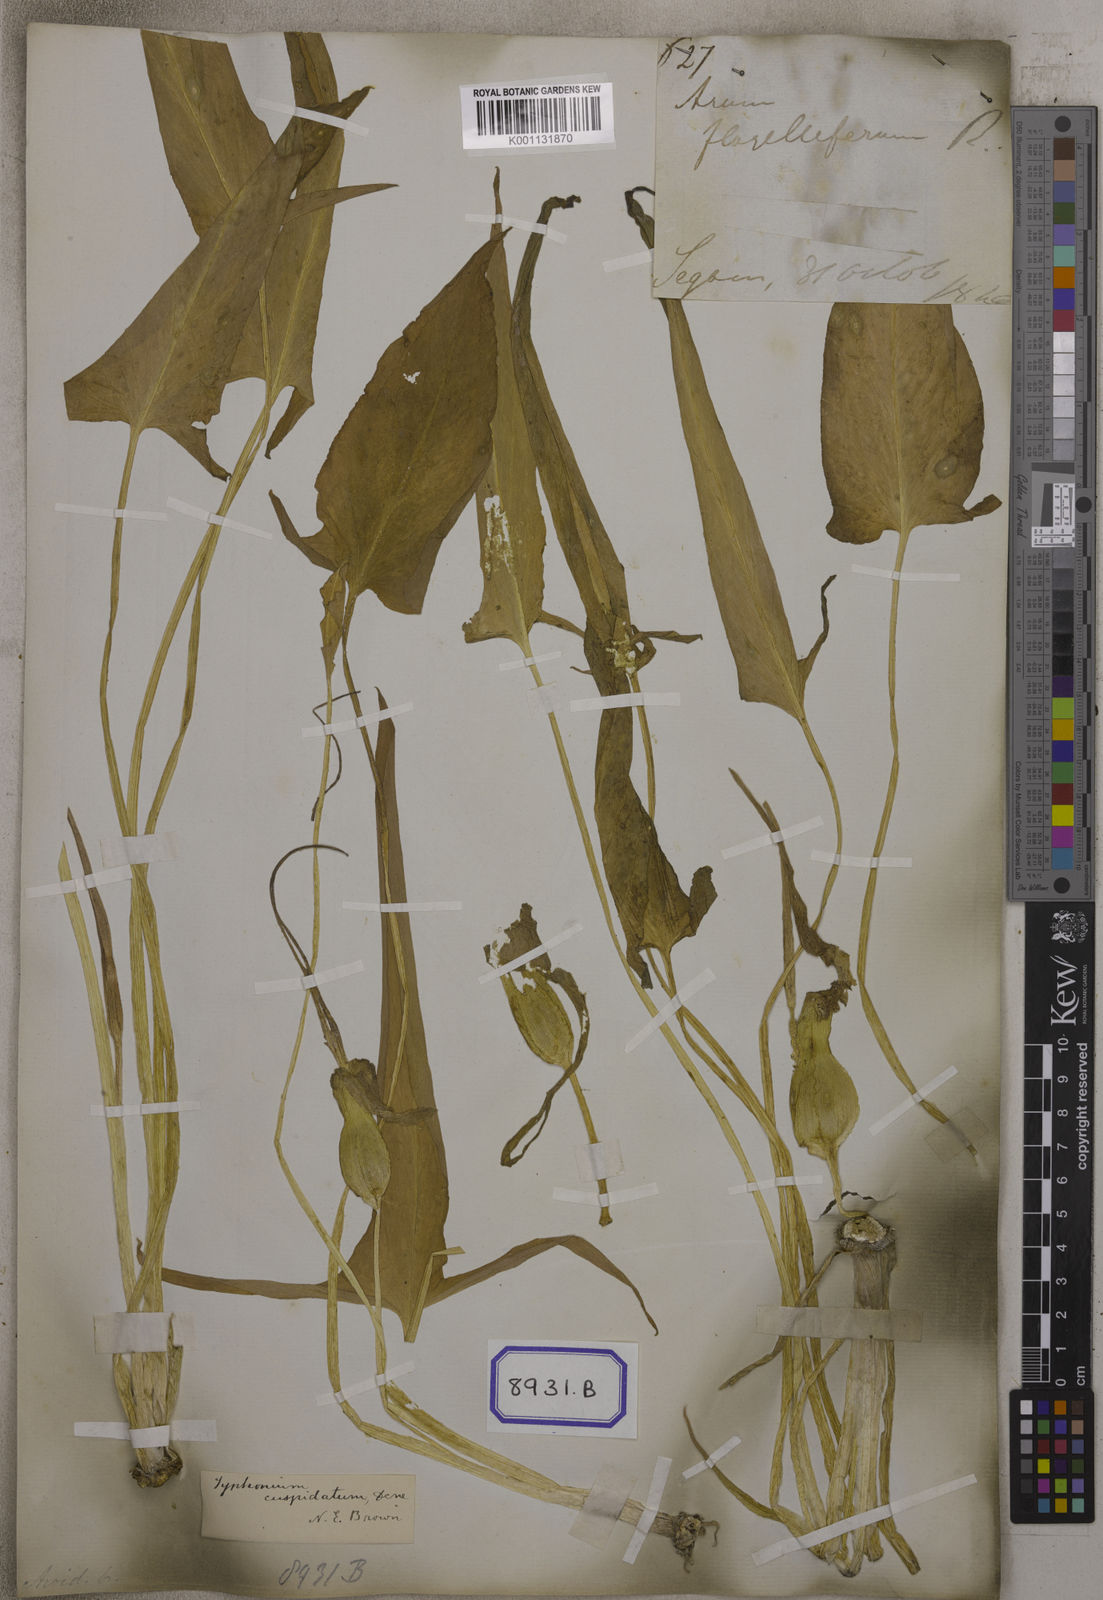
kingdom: Plantae
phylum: Tracheophyta
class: Liliopsida
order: Alismatales
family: Araceae
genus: Typhonium
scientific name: Typhonium flagelliforme
